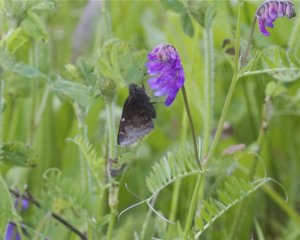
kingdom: Animalia
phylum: Arthropoda
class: Insecta
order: Lepidoptera
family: Hesperiidae
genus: Autochton
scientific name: Autochton
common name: Northern Cloudywing
